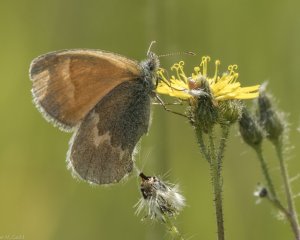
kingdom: Animalia
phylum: Arthropoda
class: Insecta
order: Lepidoptera
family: Nymphalidae
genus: Coenonympha
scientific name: Coenonympha tullia
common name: Large Heath
